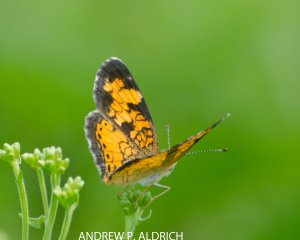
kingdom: Animalia
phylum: Arthropoda
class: Insecta
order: Lepidoptera
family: Nymphalidae
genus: Phyciodes
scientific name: Phyciodes
